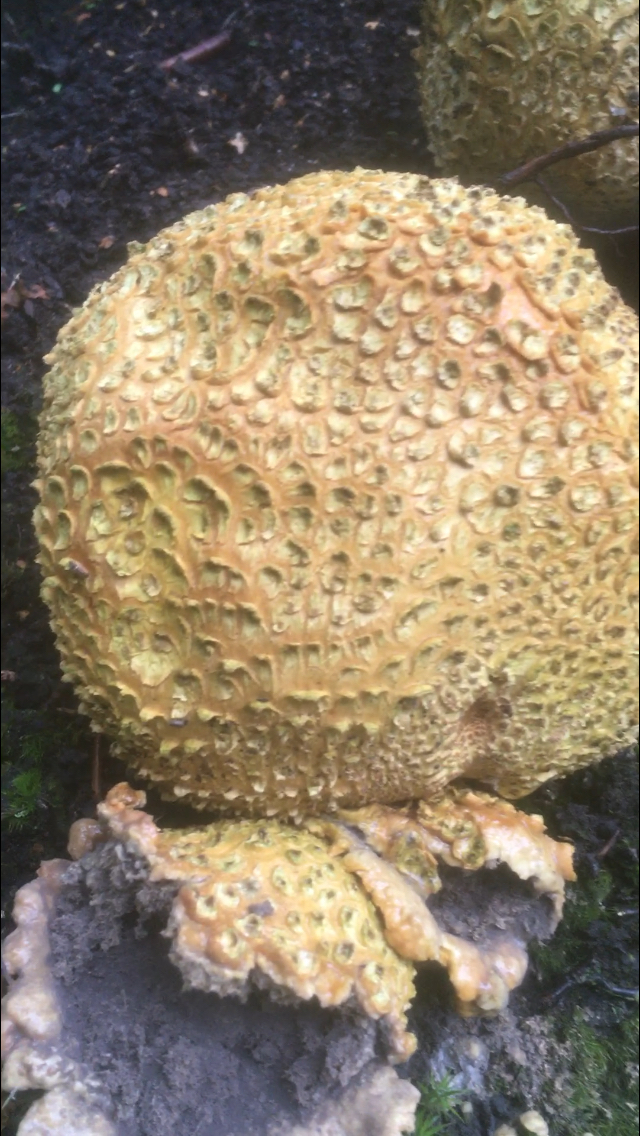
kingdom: Fungi
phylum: Basidiomycota
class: Agaricomycetes
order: Boletales
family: Sclerodermataceae
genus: Scleroderma
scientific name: Scleroderma citrinum
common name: almindelig bruskbold
